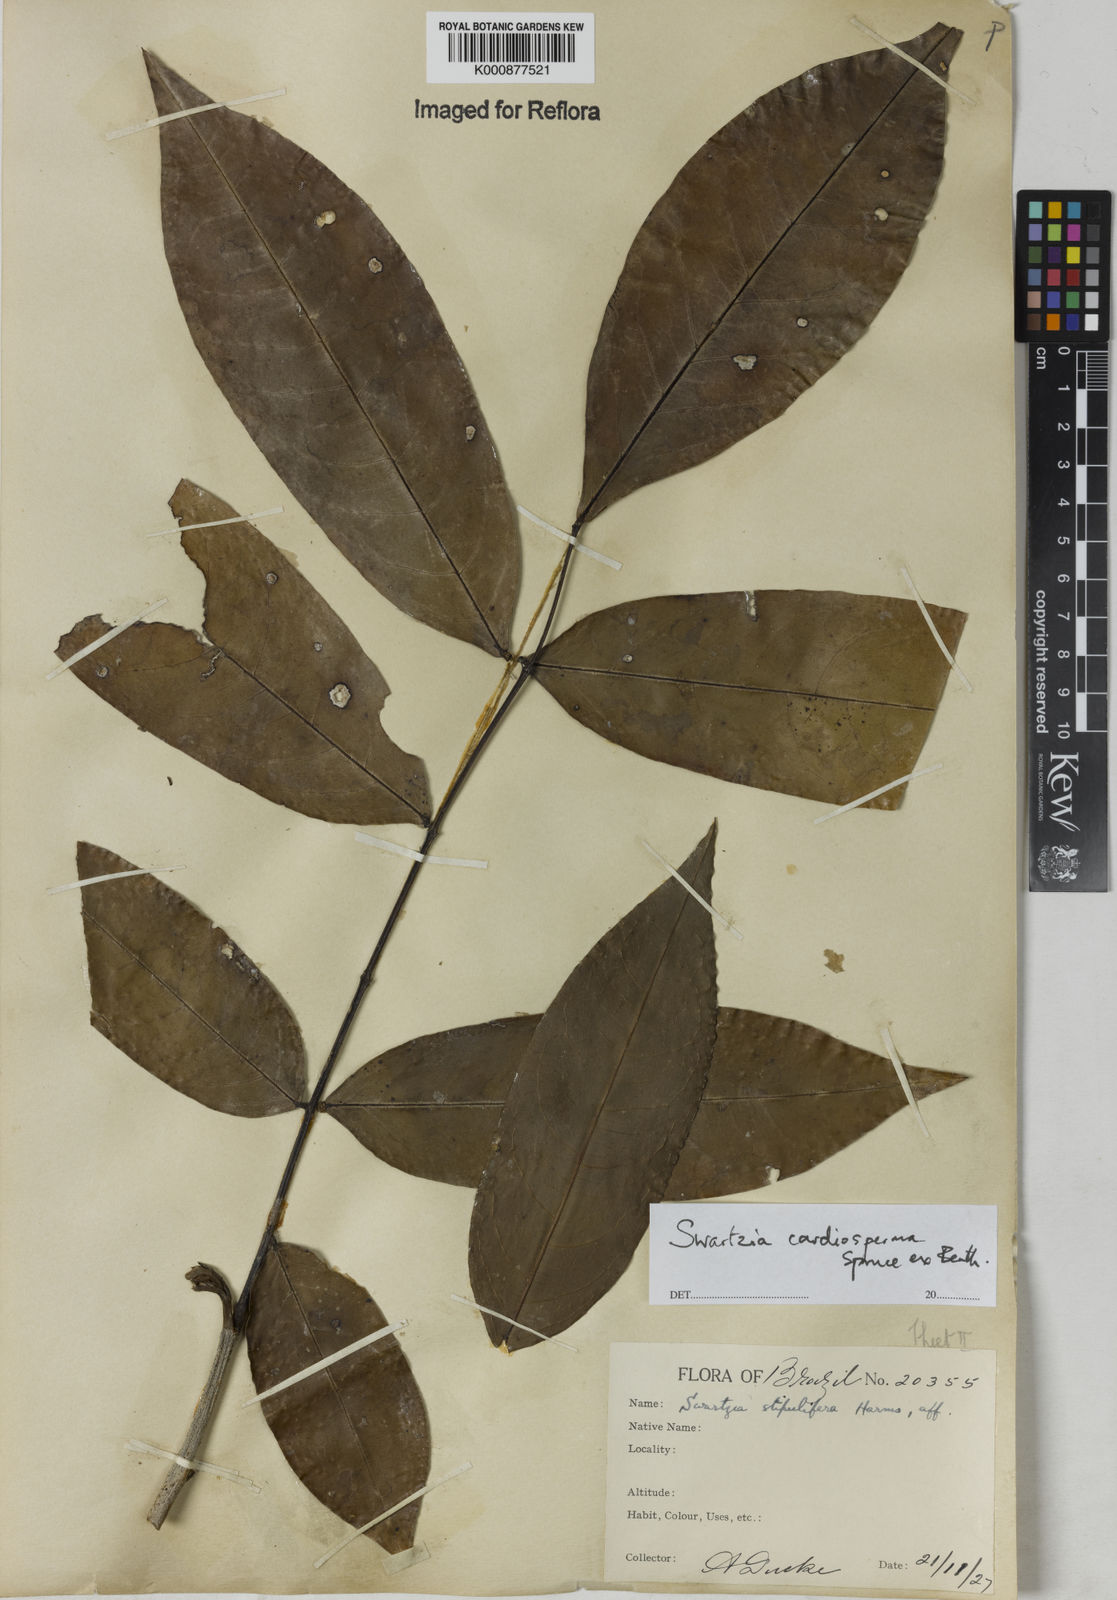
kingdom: Plantae
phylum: Tracheophyta
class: Magnoliopsida
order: Fabales
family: Fabaceae
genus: Swartzia
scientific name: Swartzia cardiosperma
